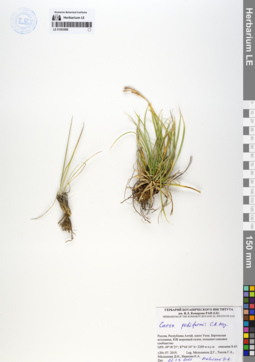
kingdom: Plantae
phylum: Tracheophyta
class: Liliopsida
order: Poales
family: Cyperaceae
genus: Carex
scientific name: Carex pediformis
